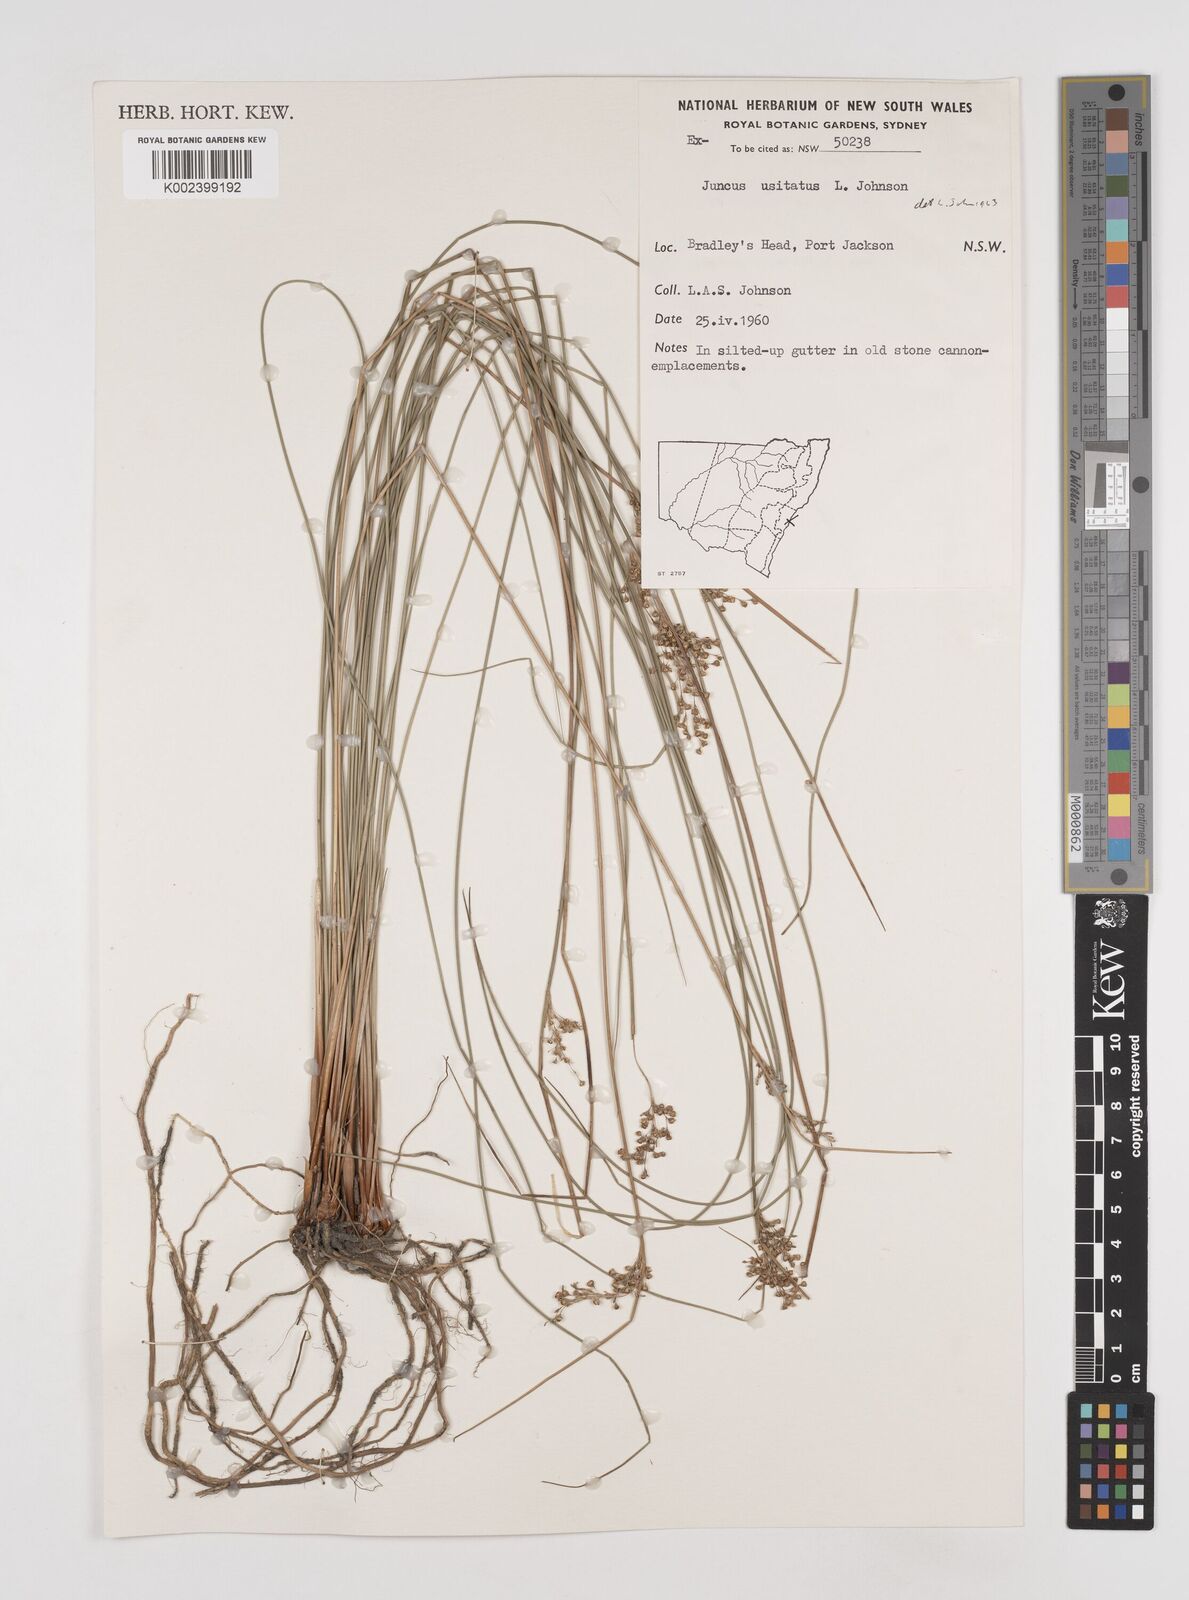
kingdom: Plantae
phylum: Tracheophyta
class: Liliopsida
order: Poales
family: Juncaceae
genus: Juncus
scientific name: Juncus usitatus
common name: Rush
